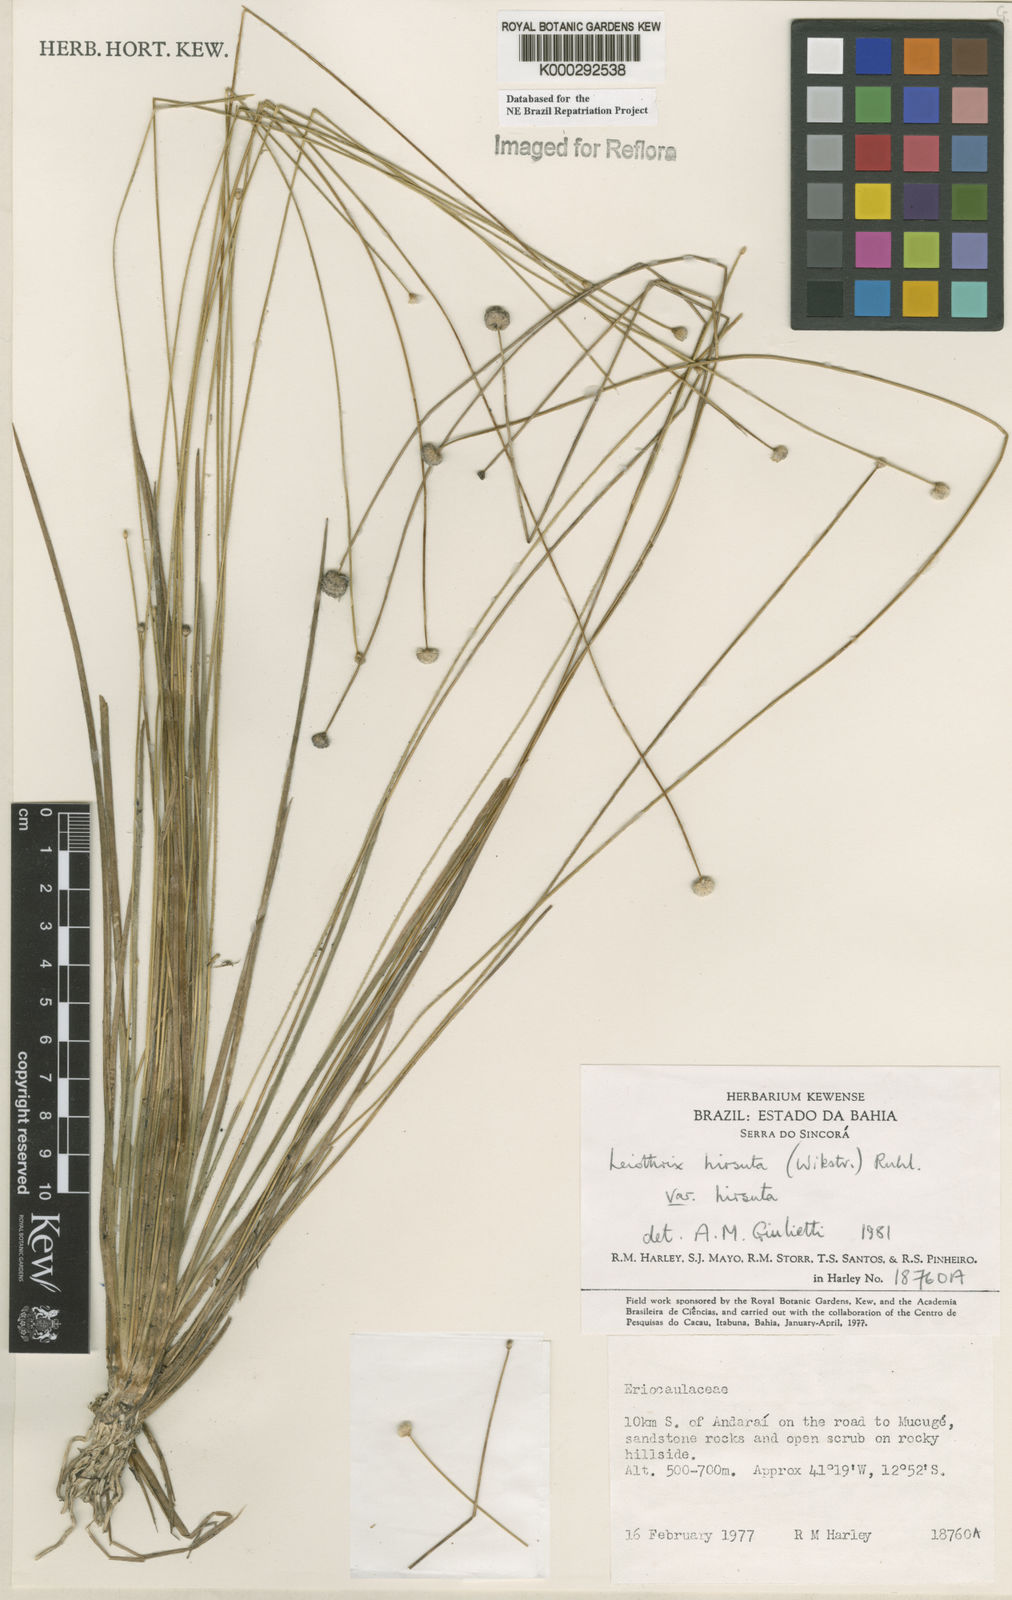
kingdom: Plantae
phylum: Tracheophyta
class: Liliopsida
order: Poales
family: Eriocaulaceae
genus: Leiothrix
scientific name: Leiothrix hirsuta
